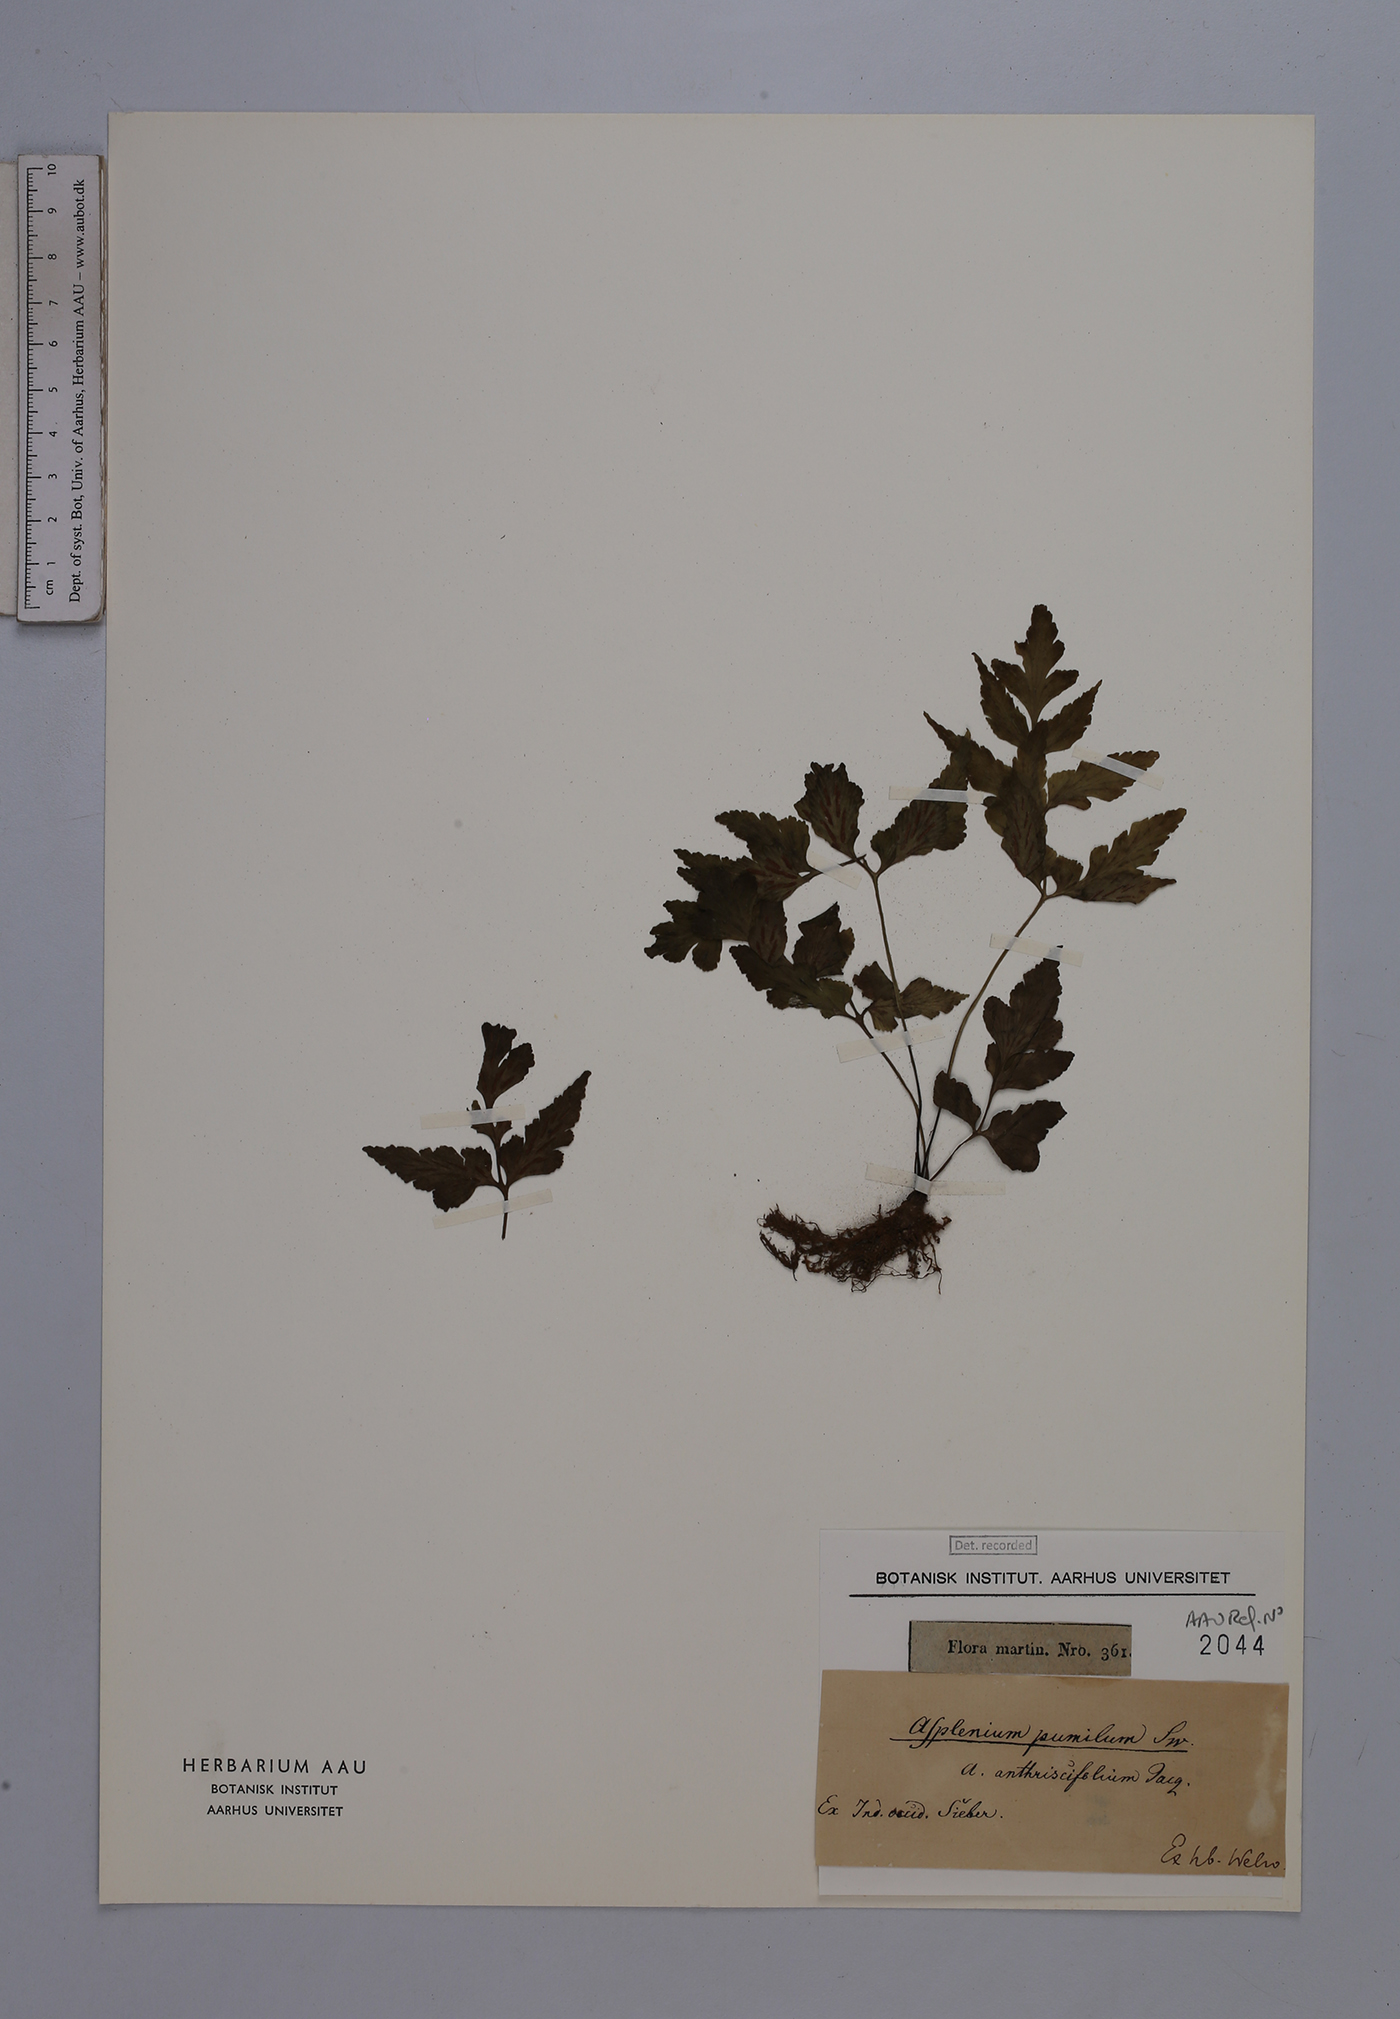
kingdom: Plantae
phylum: Tracheophyta
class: Polypodiopsida
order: Polypodiales
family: Aspleniaceae
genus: Asplenium
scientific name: Asplenium pumilum
